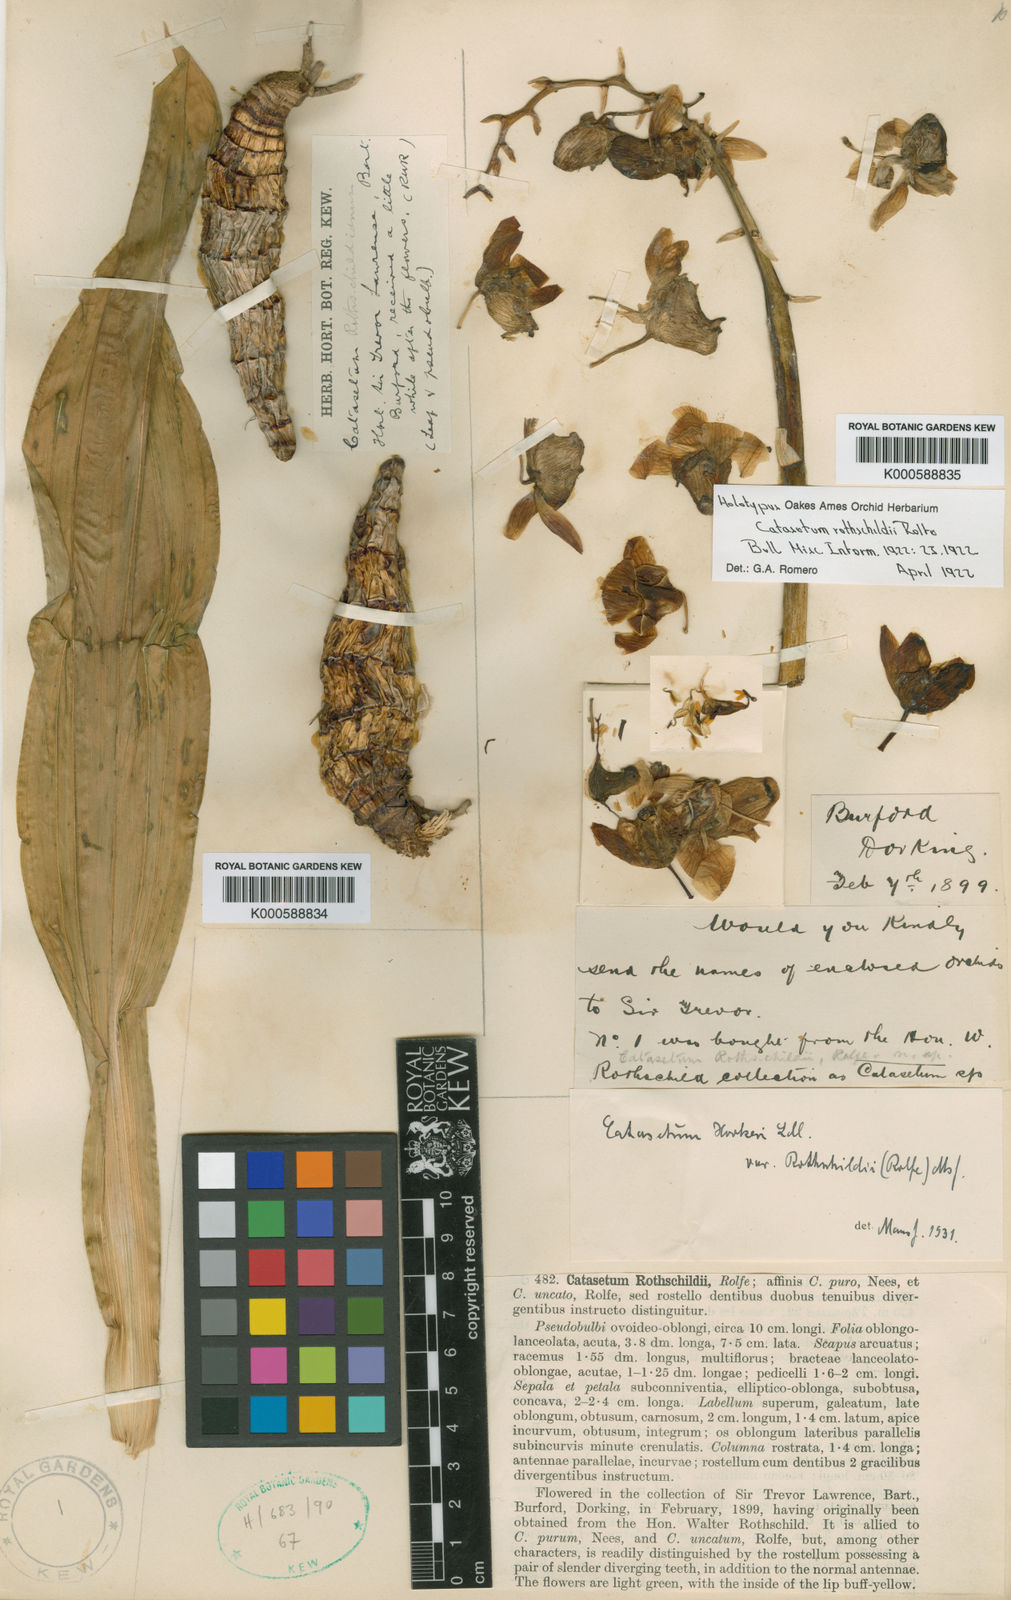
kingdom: Plantae
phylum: Tracheophyta
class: Liliopsida
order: Asparagales
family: Orchidaceae
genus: Catasetum
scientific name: Catasetum hookeri
